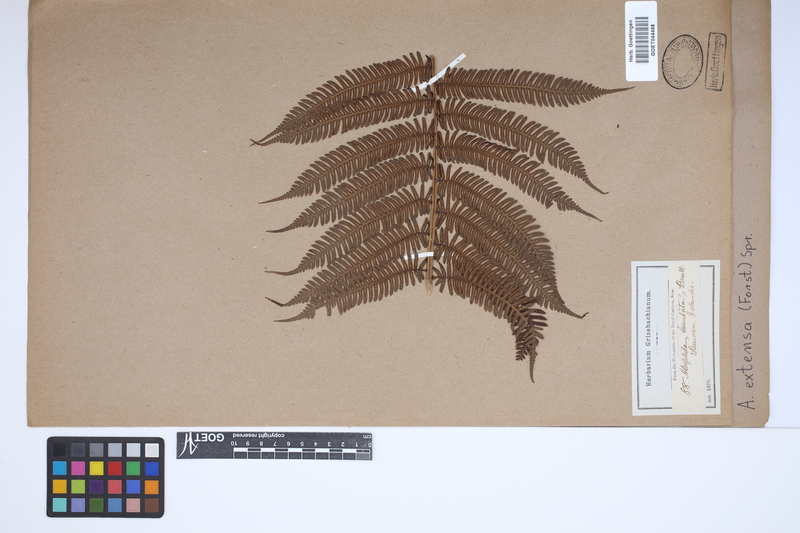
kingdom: Plantae
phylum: Tracheophyta
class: Polypodiopsida
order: Cyatheales
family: Cyatheaceae
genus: Alsophila
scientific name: Alsophila junghuhniana
